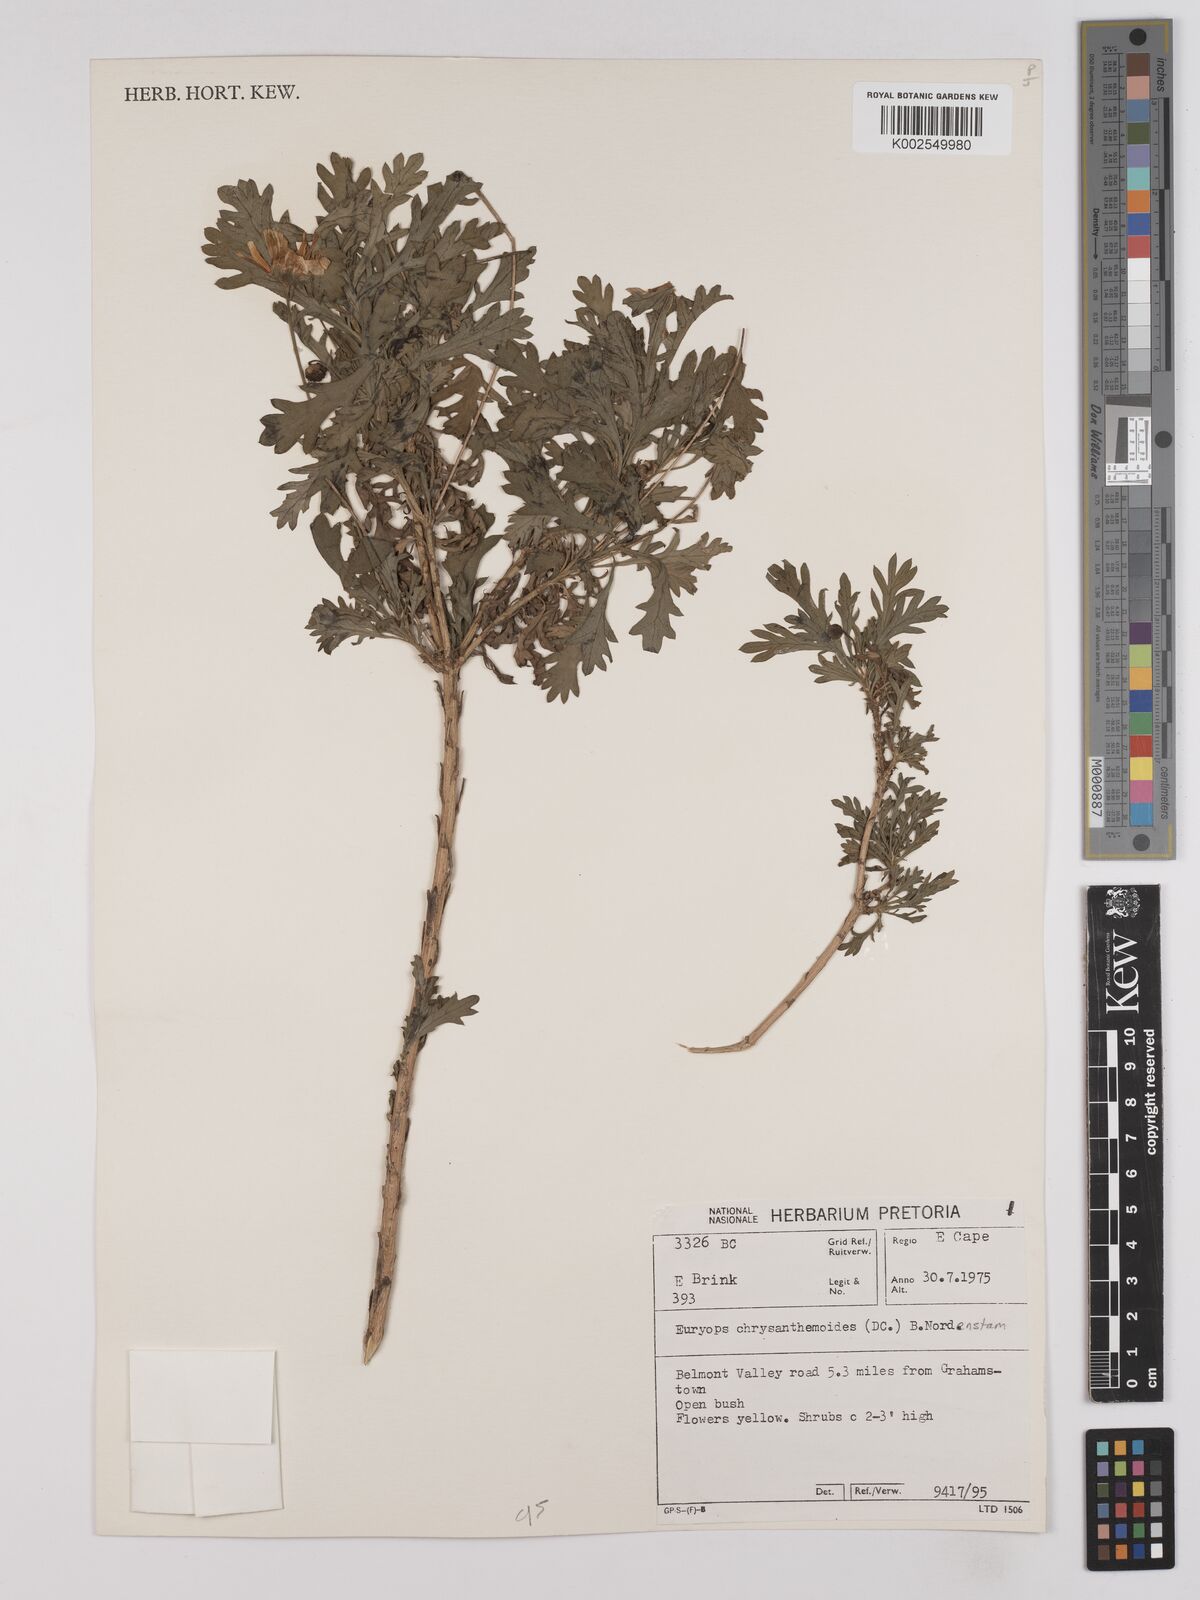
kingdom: Plantae
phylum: Tracheophyta
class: Magnoliopsida
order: Asterales
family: Asteraceae
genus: Euryops
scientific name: Euryops chrysanthemoides
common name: Bull's eye
